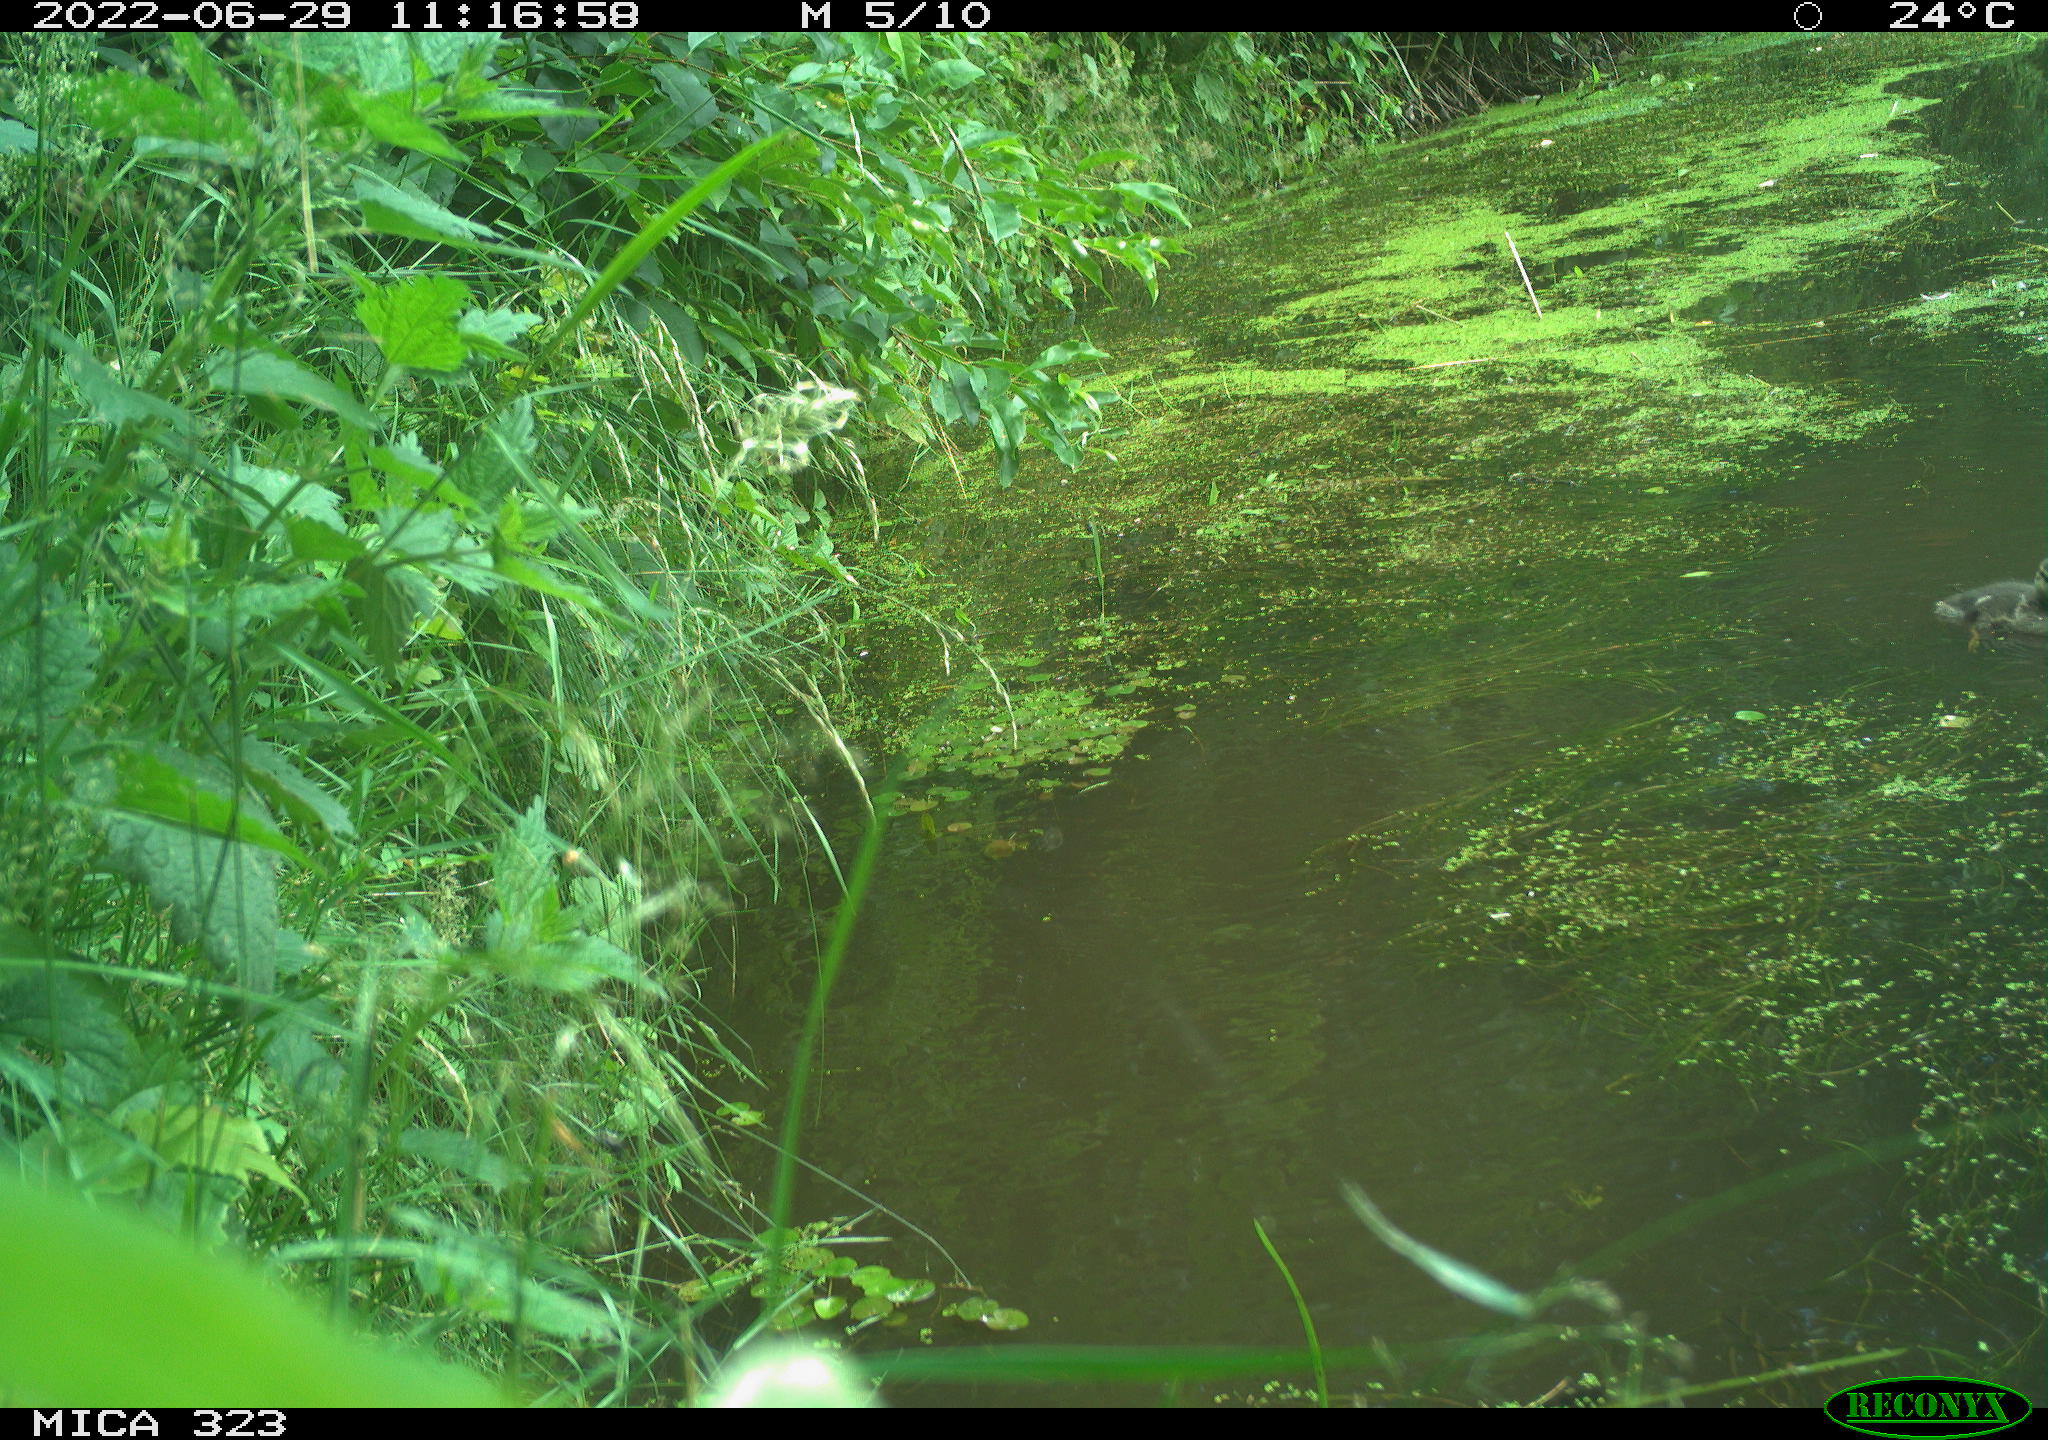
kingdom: Animalia
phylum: Chordata
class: Aves
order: Anseriformes
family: Anatidae
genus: Anas
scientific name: Anas platyrhynchos
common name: Mallard
